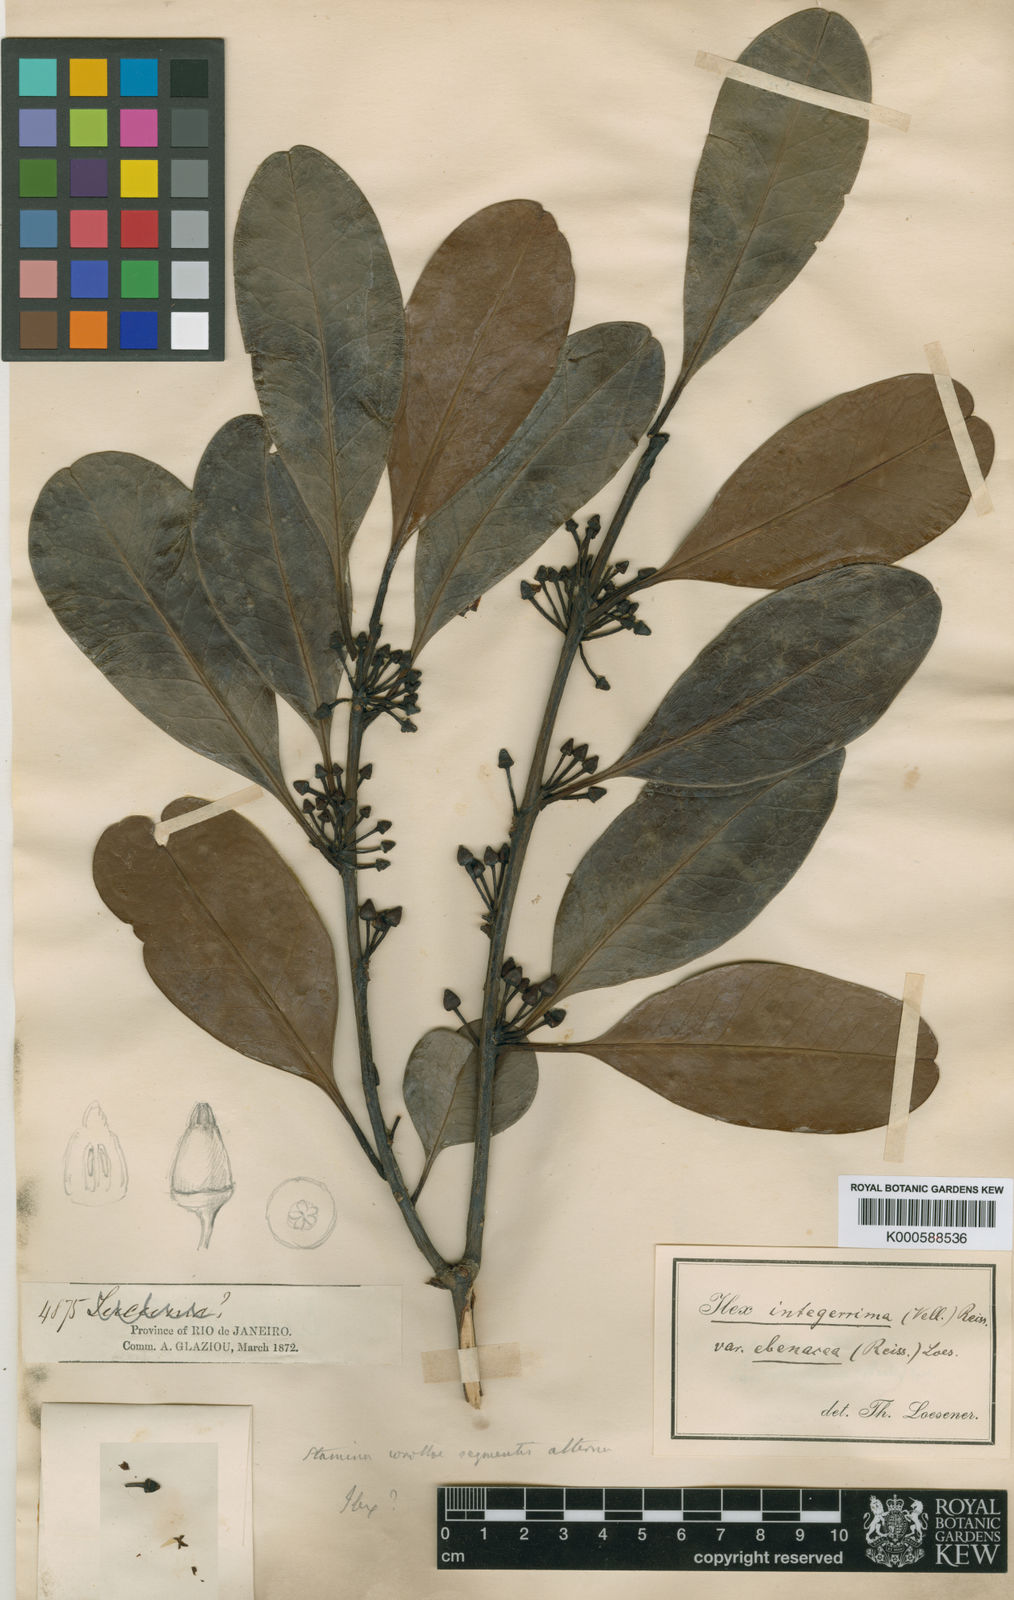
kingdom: Plantae
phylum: Tracheophyta
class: Magnoliopsida
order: Aquifoliales
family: Aquifoliaceae
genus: Ilex
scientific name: Ilex integerrima
